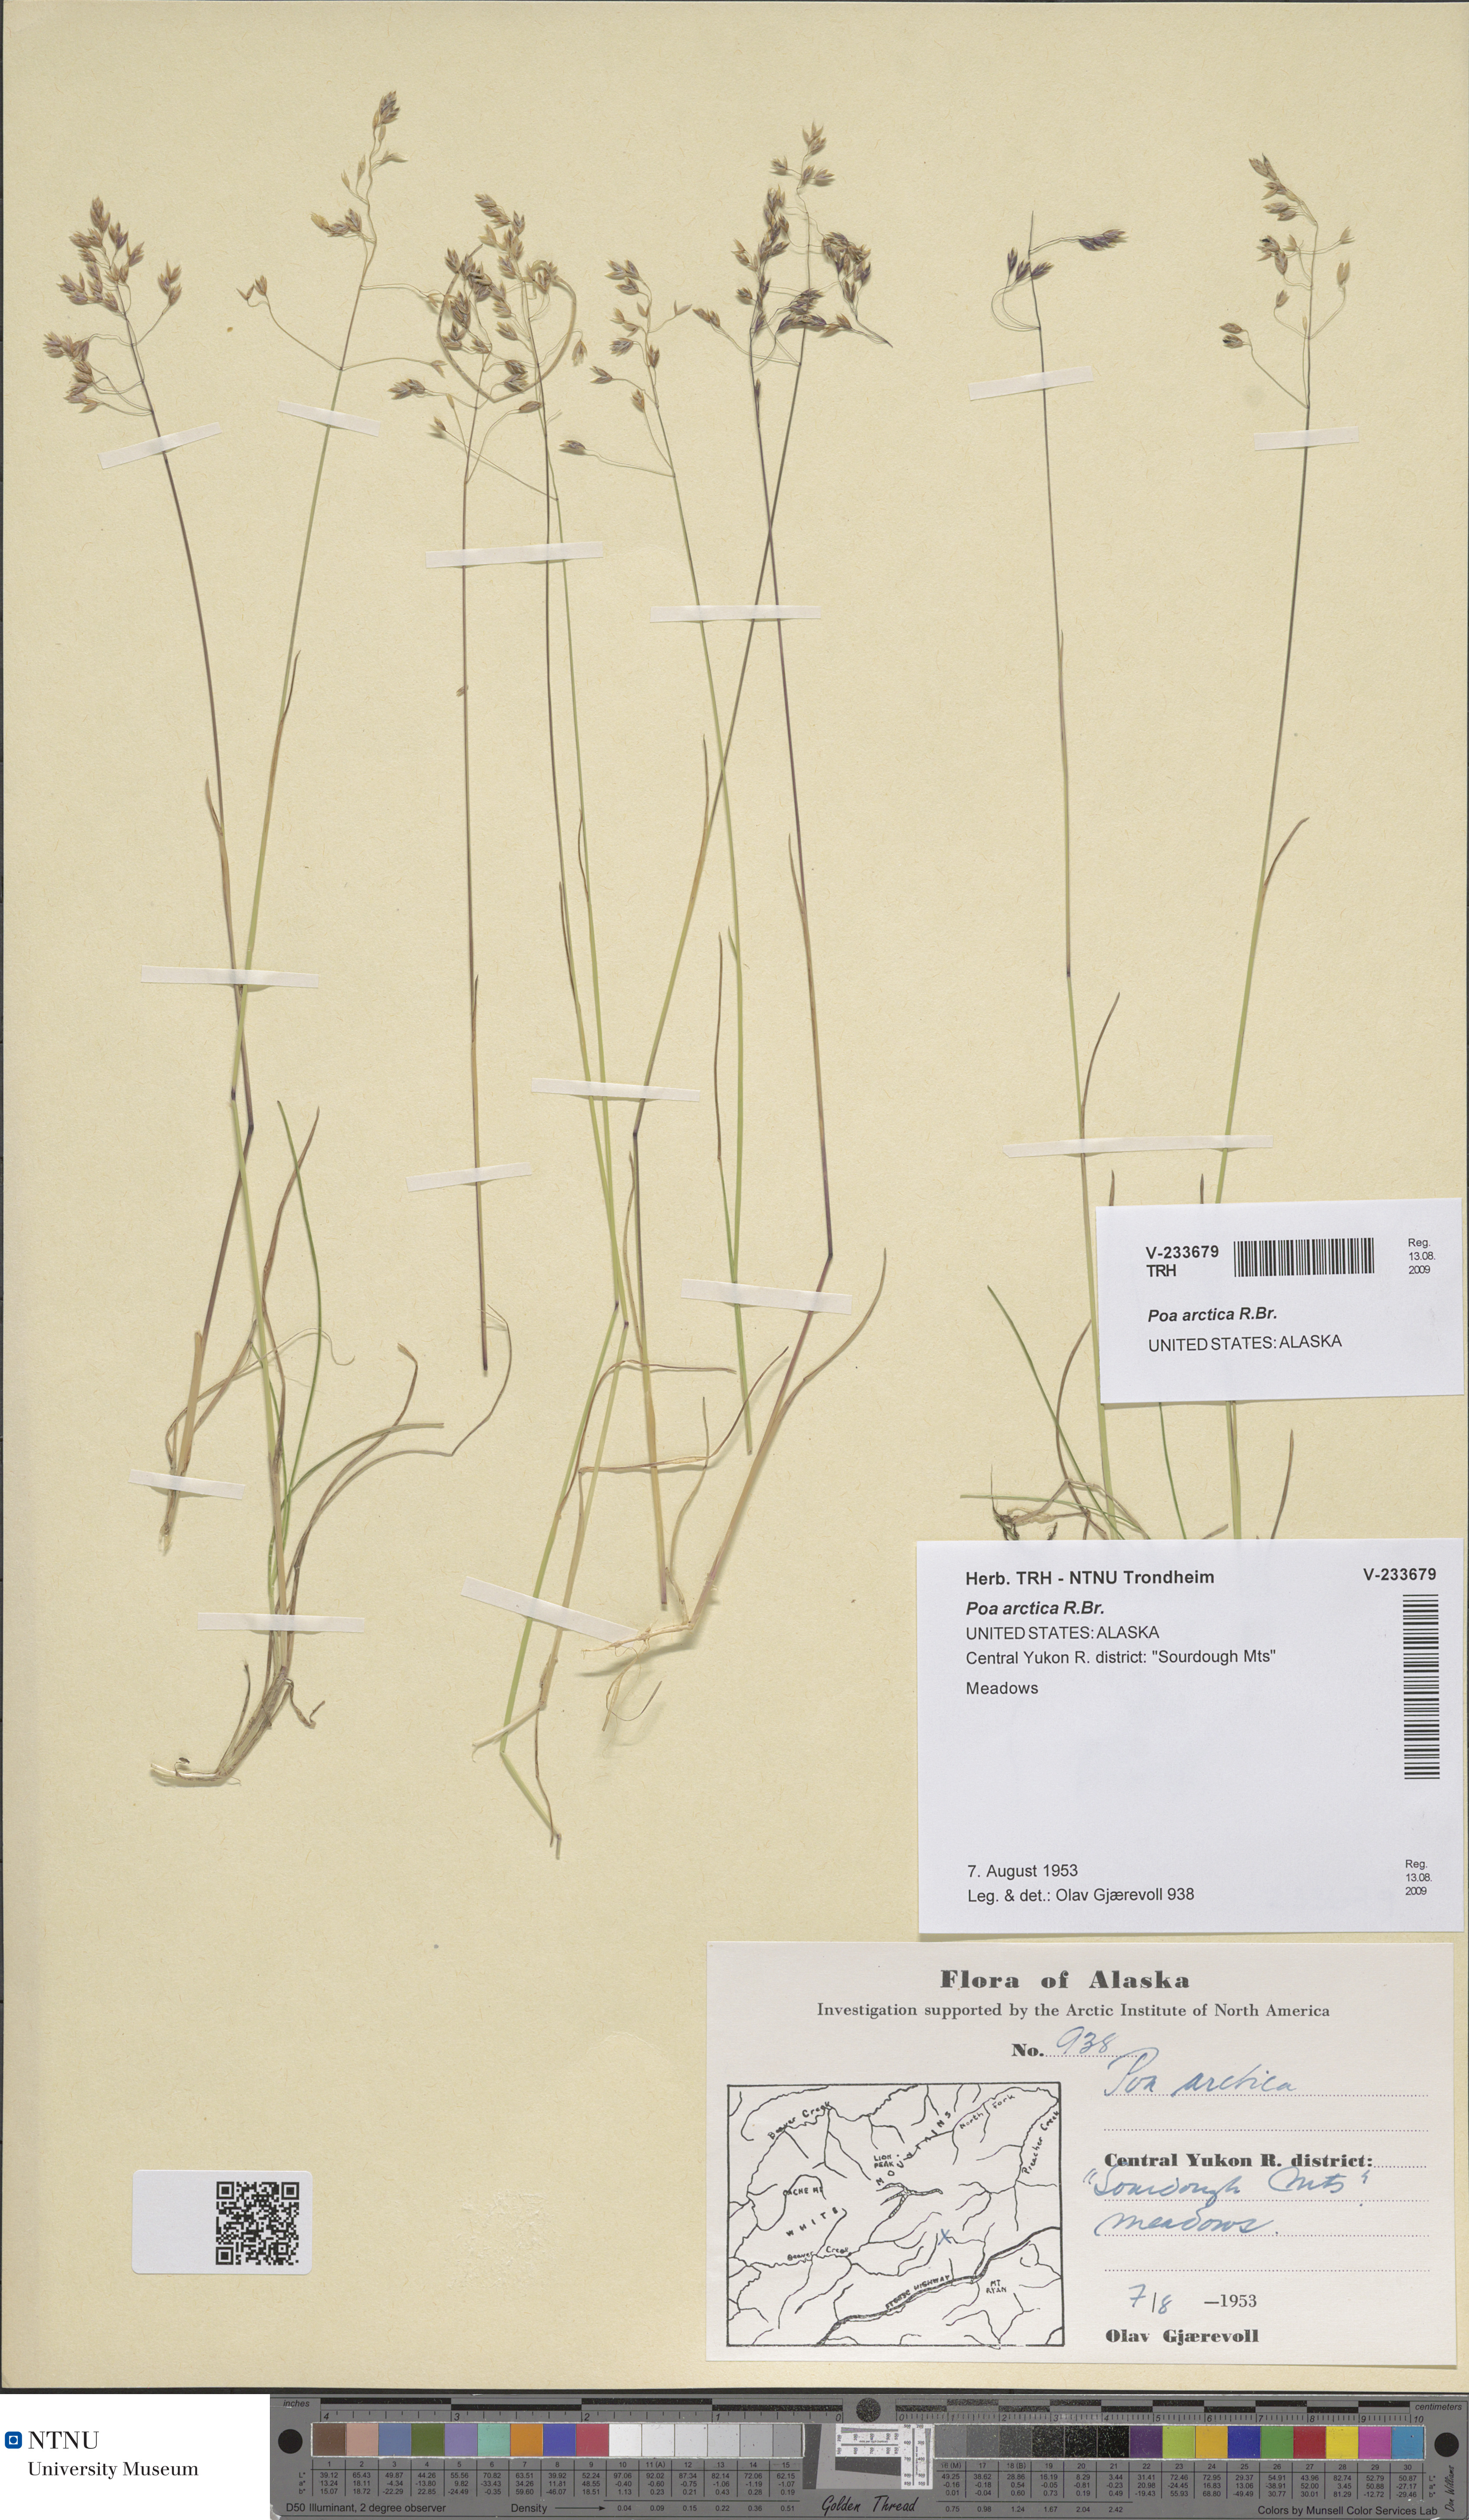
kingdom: Plantae
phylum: Tracheophyta
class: Liliopsida
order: Poales
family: Poaceae
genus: Poa
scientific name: Poa arctica
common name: Arctic bluegrass
